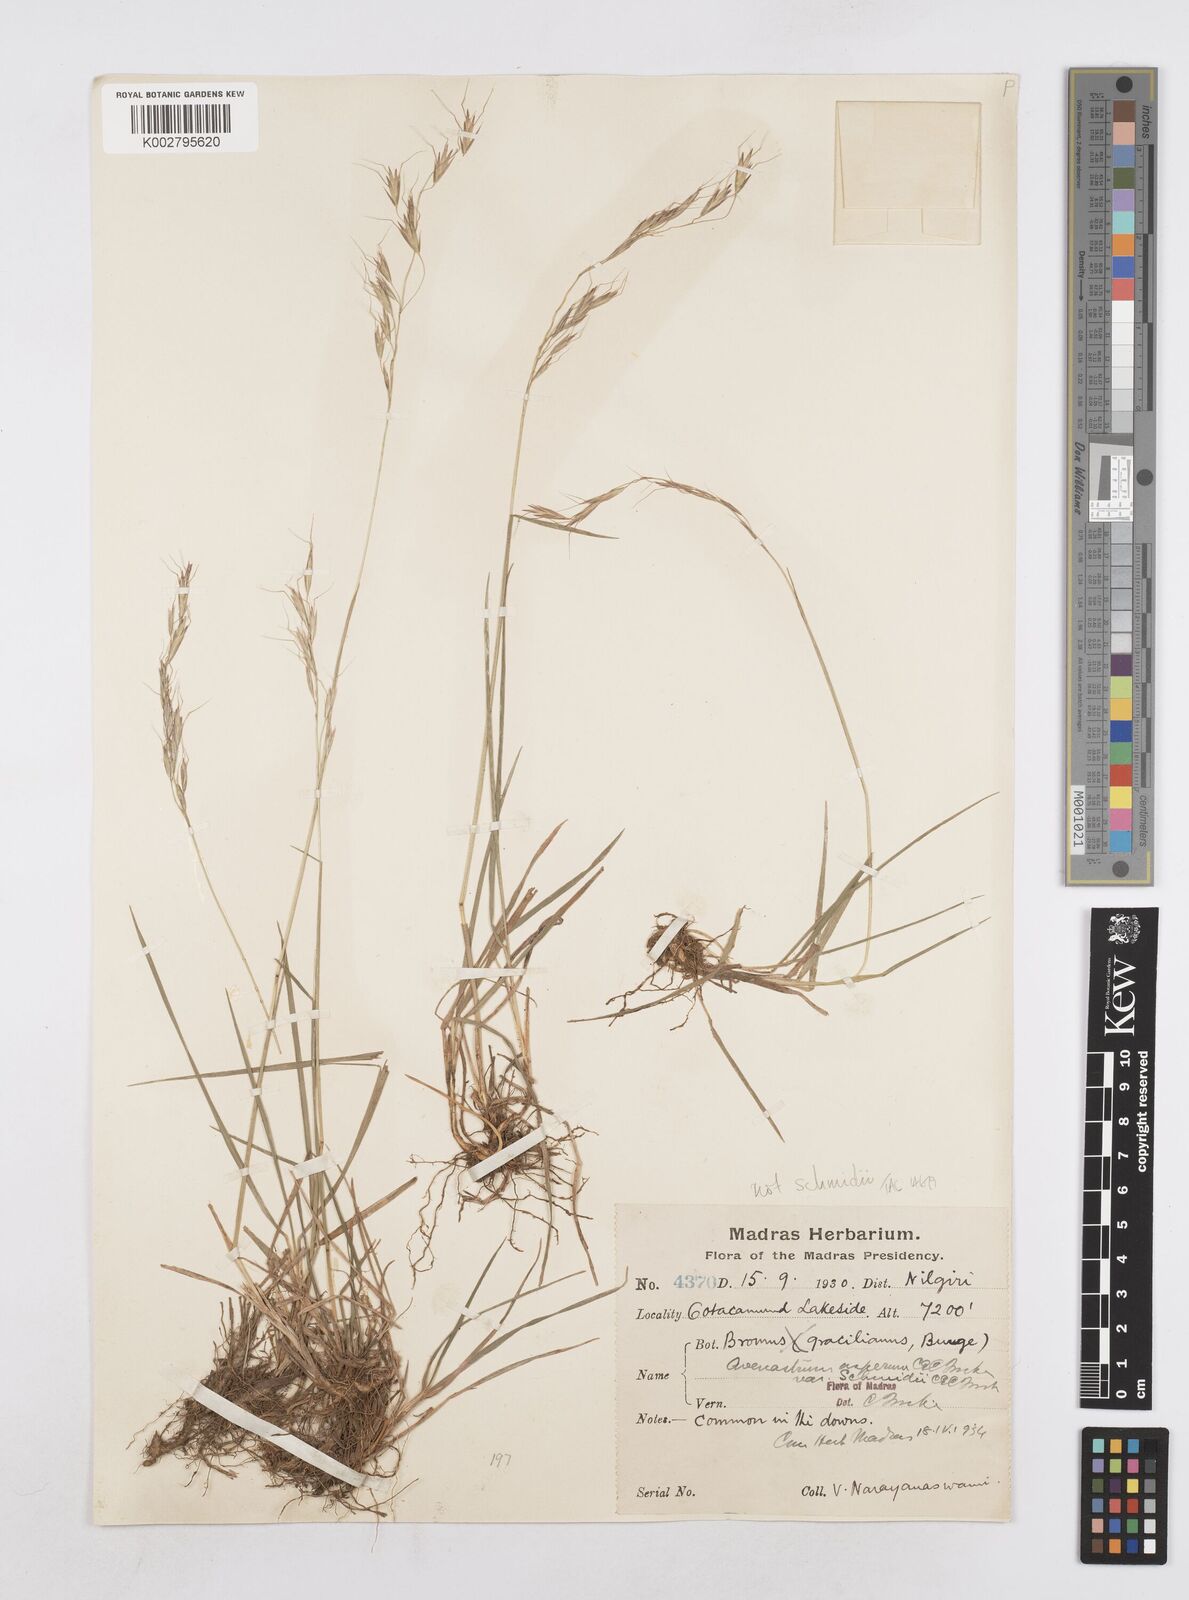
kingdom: Plantae
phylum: Tracheophyta
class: Liliopsida
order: Poales
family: Poaceae
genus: Helictotrichon
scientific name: Helictotrichon
